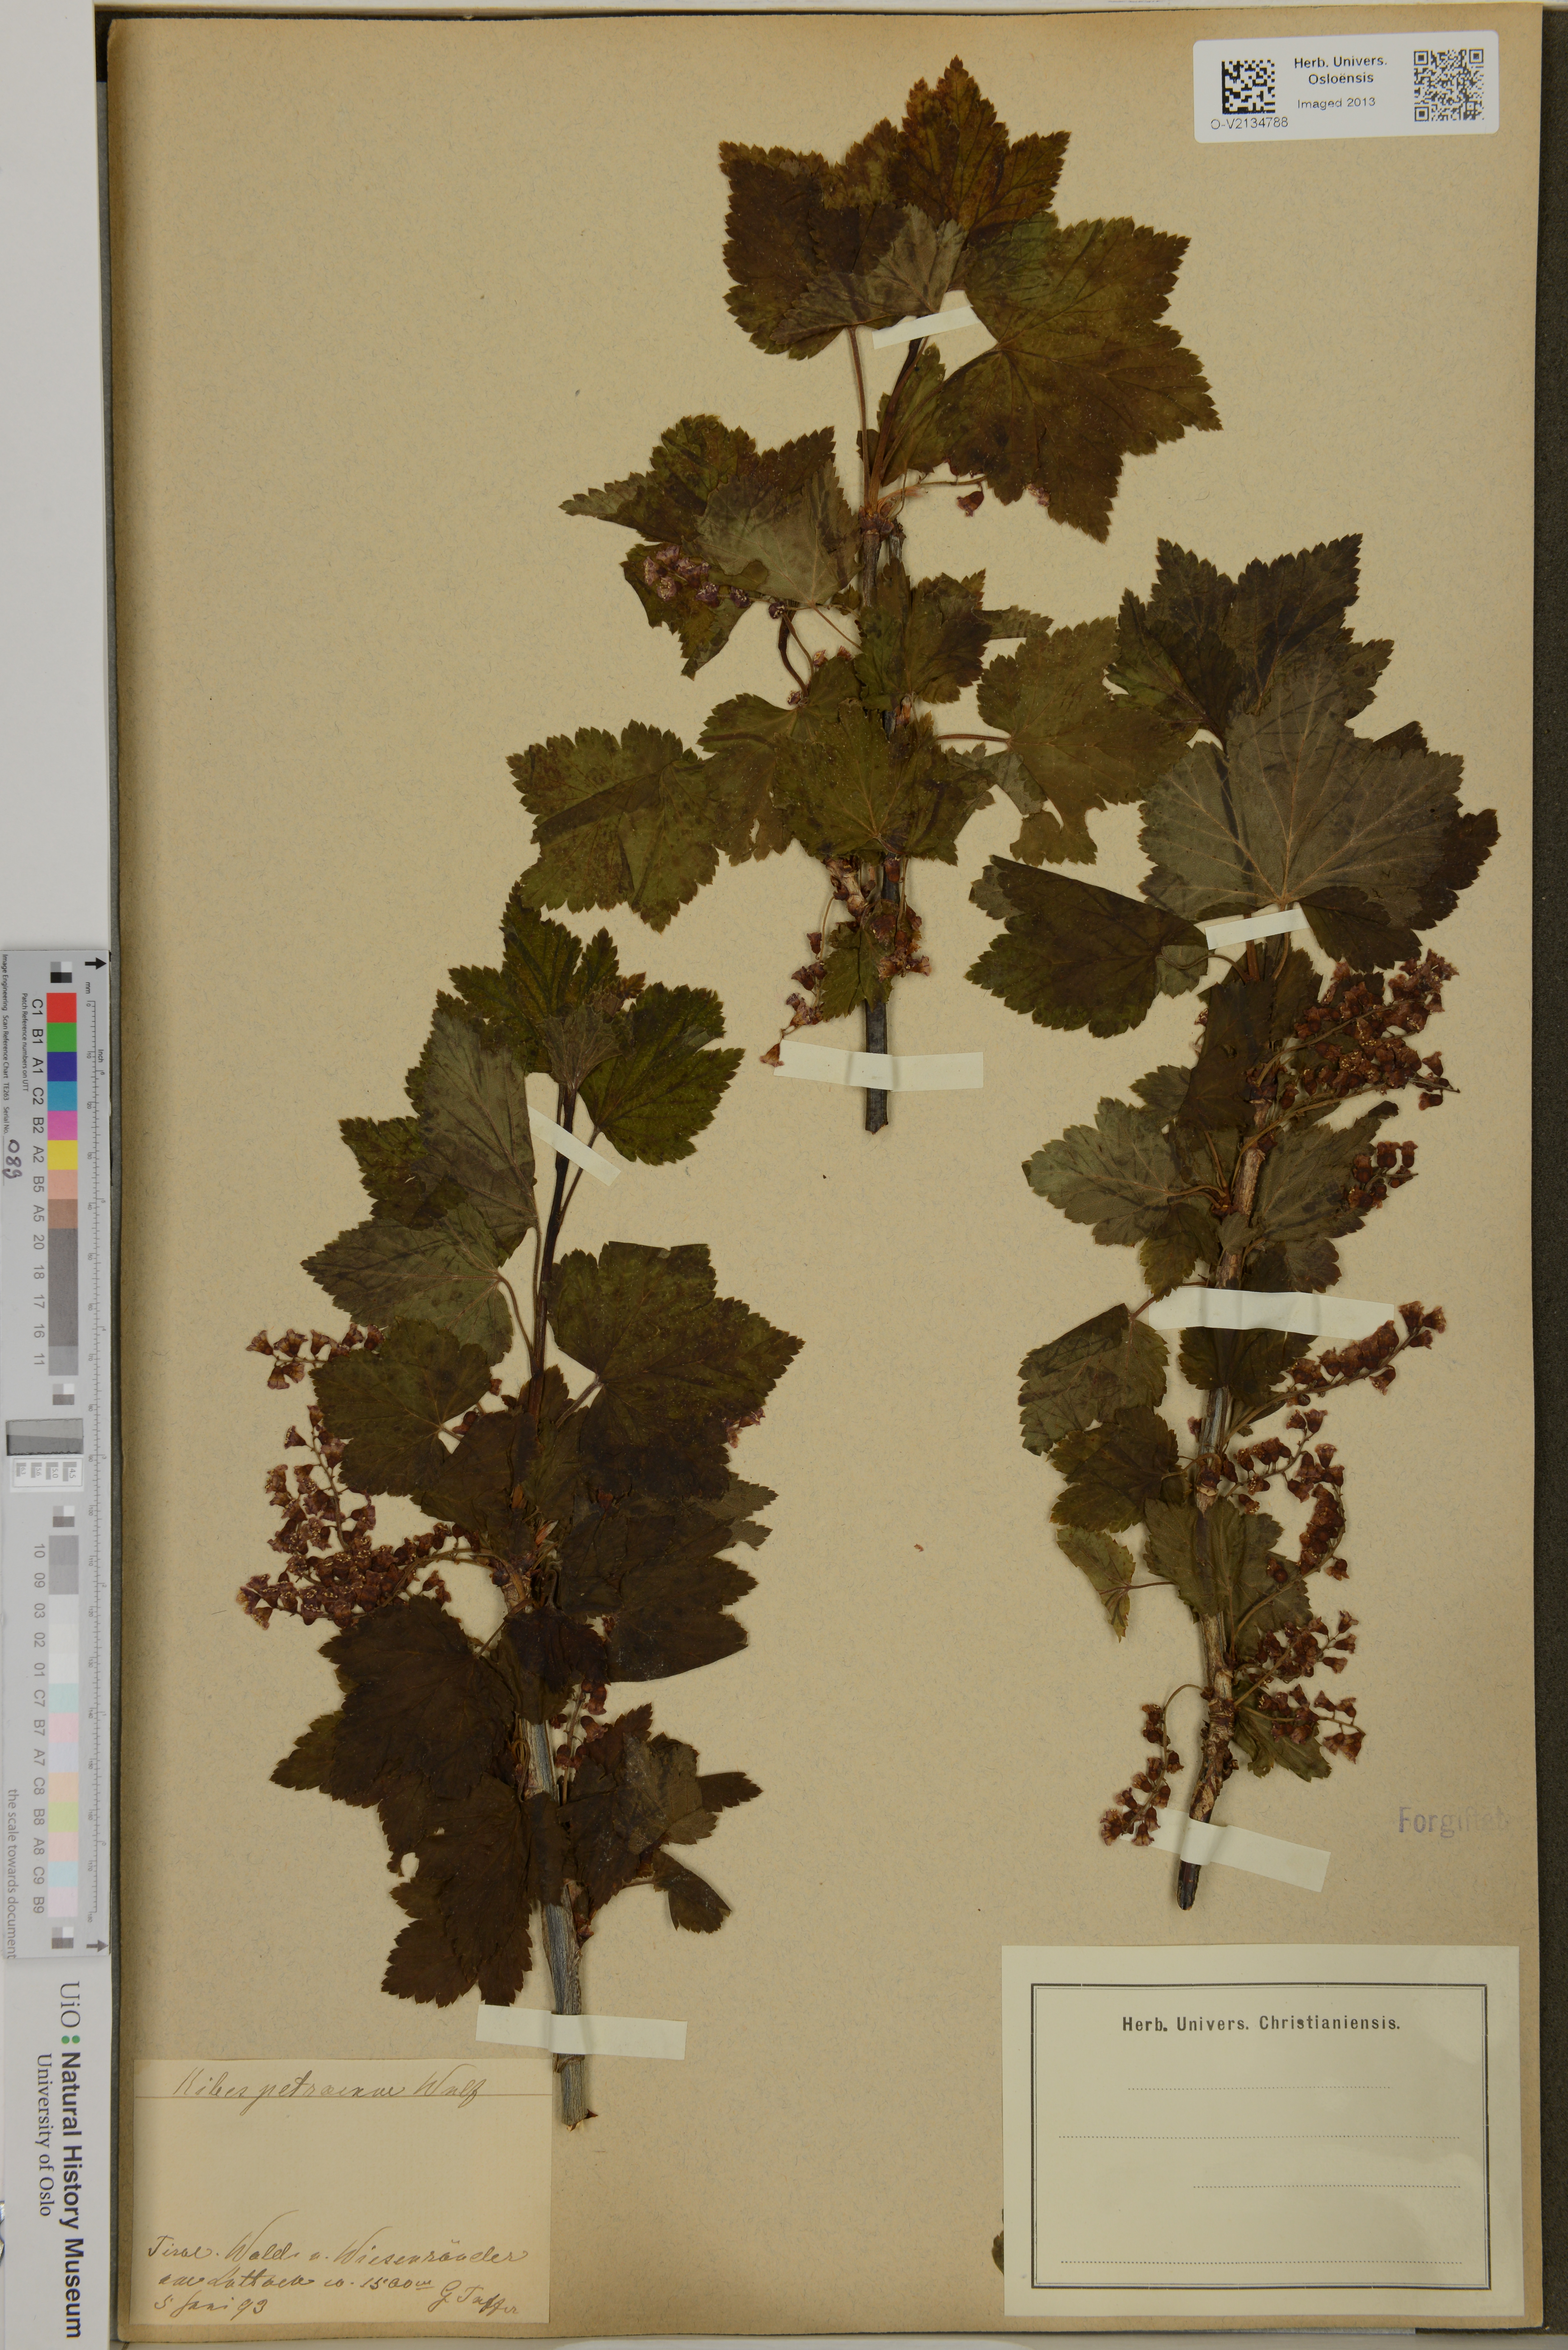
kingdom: Plantae
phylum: Tracheophyta
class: Magnoliopsida
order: Saxifragales
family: Grossulariaceae
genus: Ribes
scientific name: Ribes petraeum
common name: Rock currant
